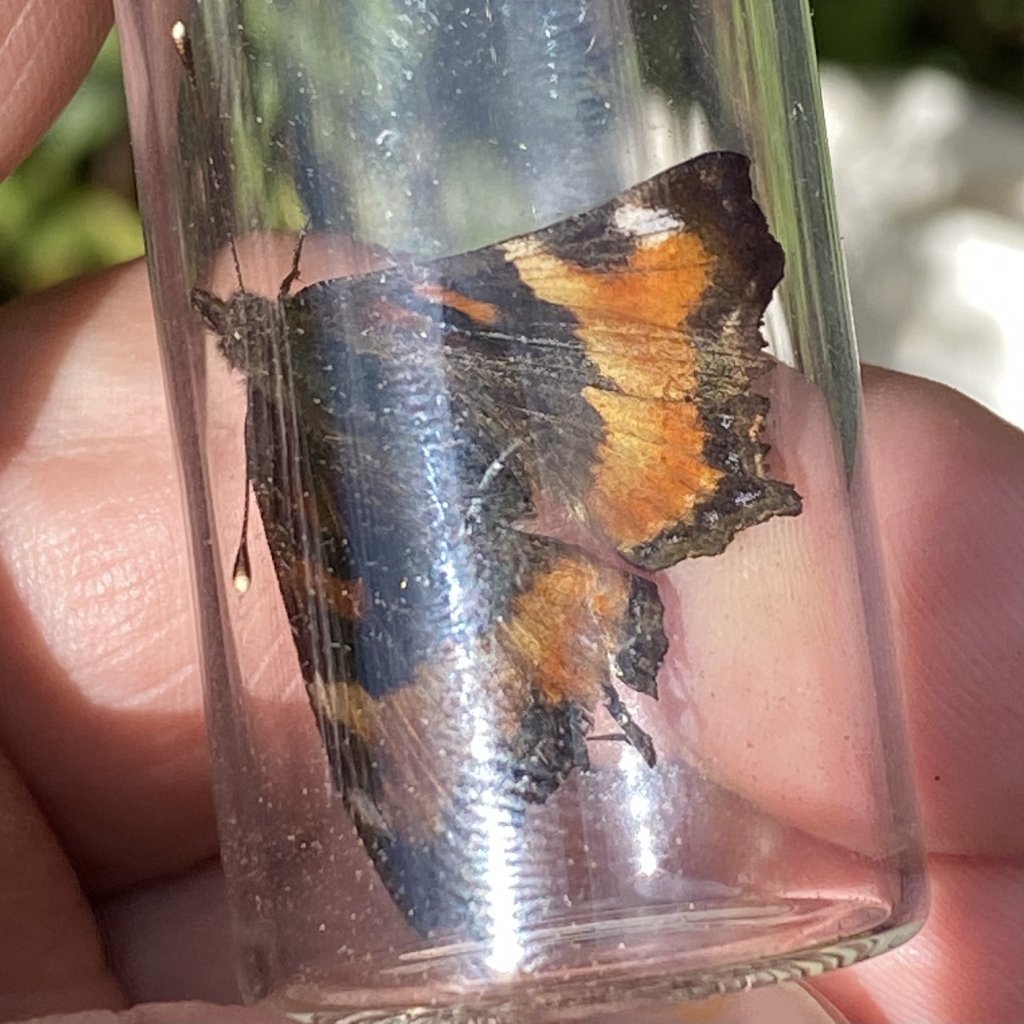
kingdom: Animalia
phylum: Arthropoda
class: Insecta
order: Lepidoptera
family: Nymphalidae
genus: Aglais
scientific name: Aglais milberti
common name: Milbert's Tortoiseshell
